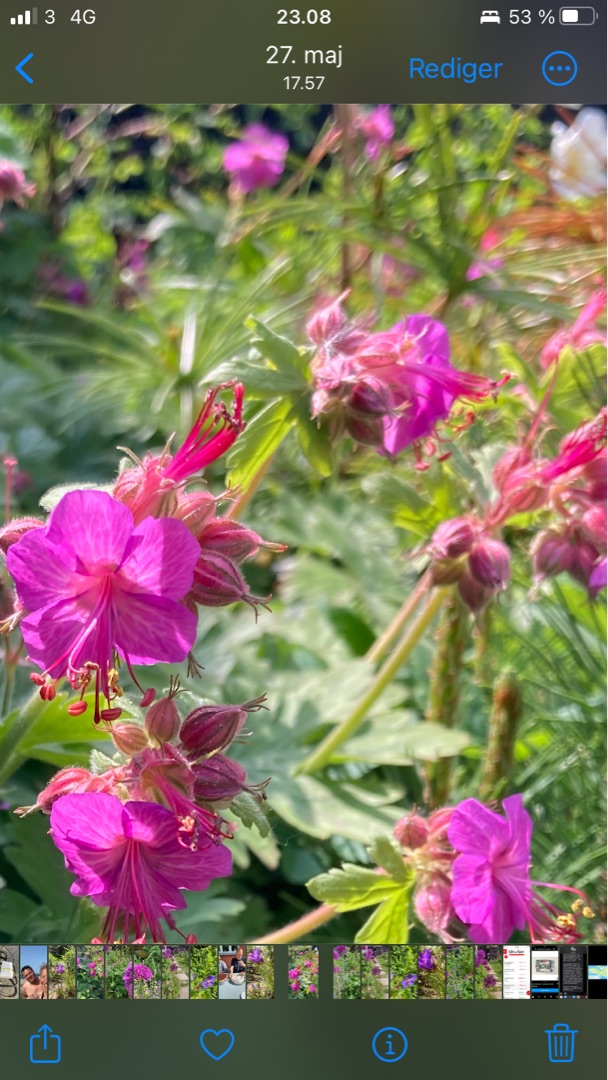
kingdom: Plantae
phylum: Tracheophyta
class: Magnoliopsida
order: Geraniales
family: Geraniaceae
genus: Geranium
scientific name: Geranium macrorrhizum
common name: Storrodet storkenæb
